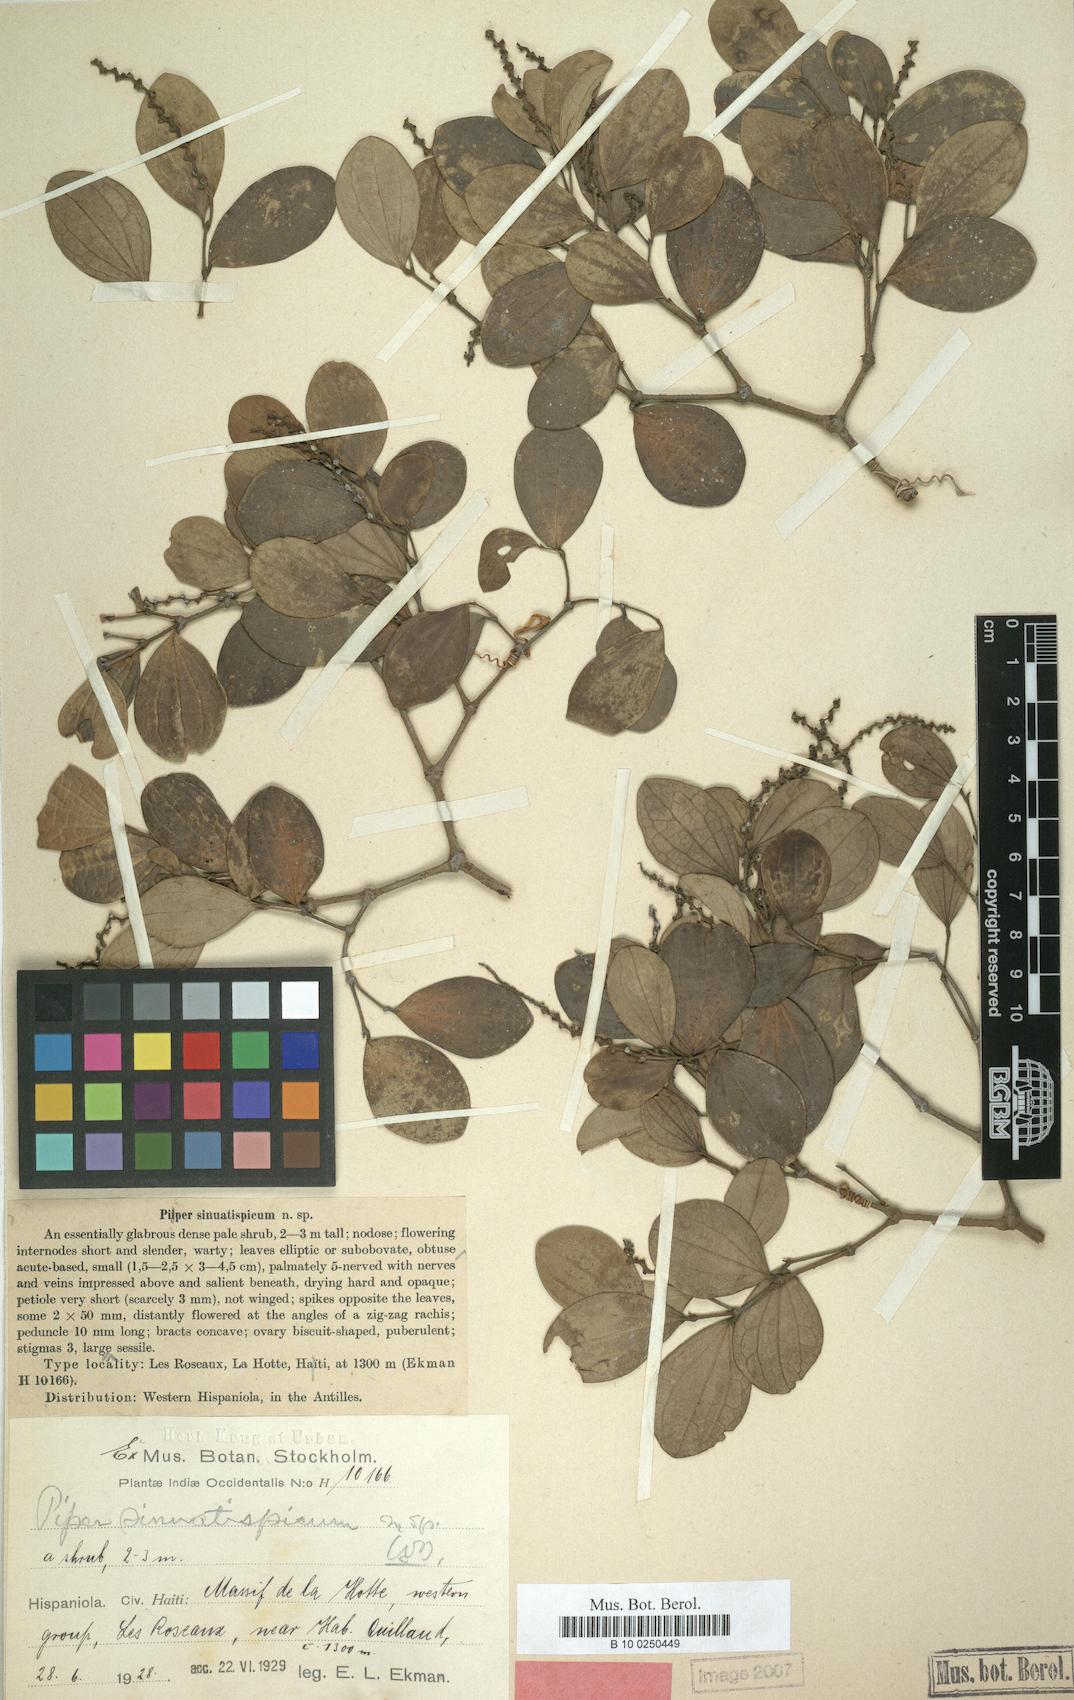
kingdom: Plantae
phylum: Tracheophyta
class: Magnoliopsida
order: Piperales
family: Piperaceae
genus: Piper
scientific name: Piper sinuatispicum
